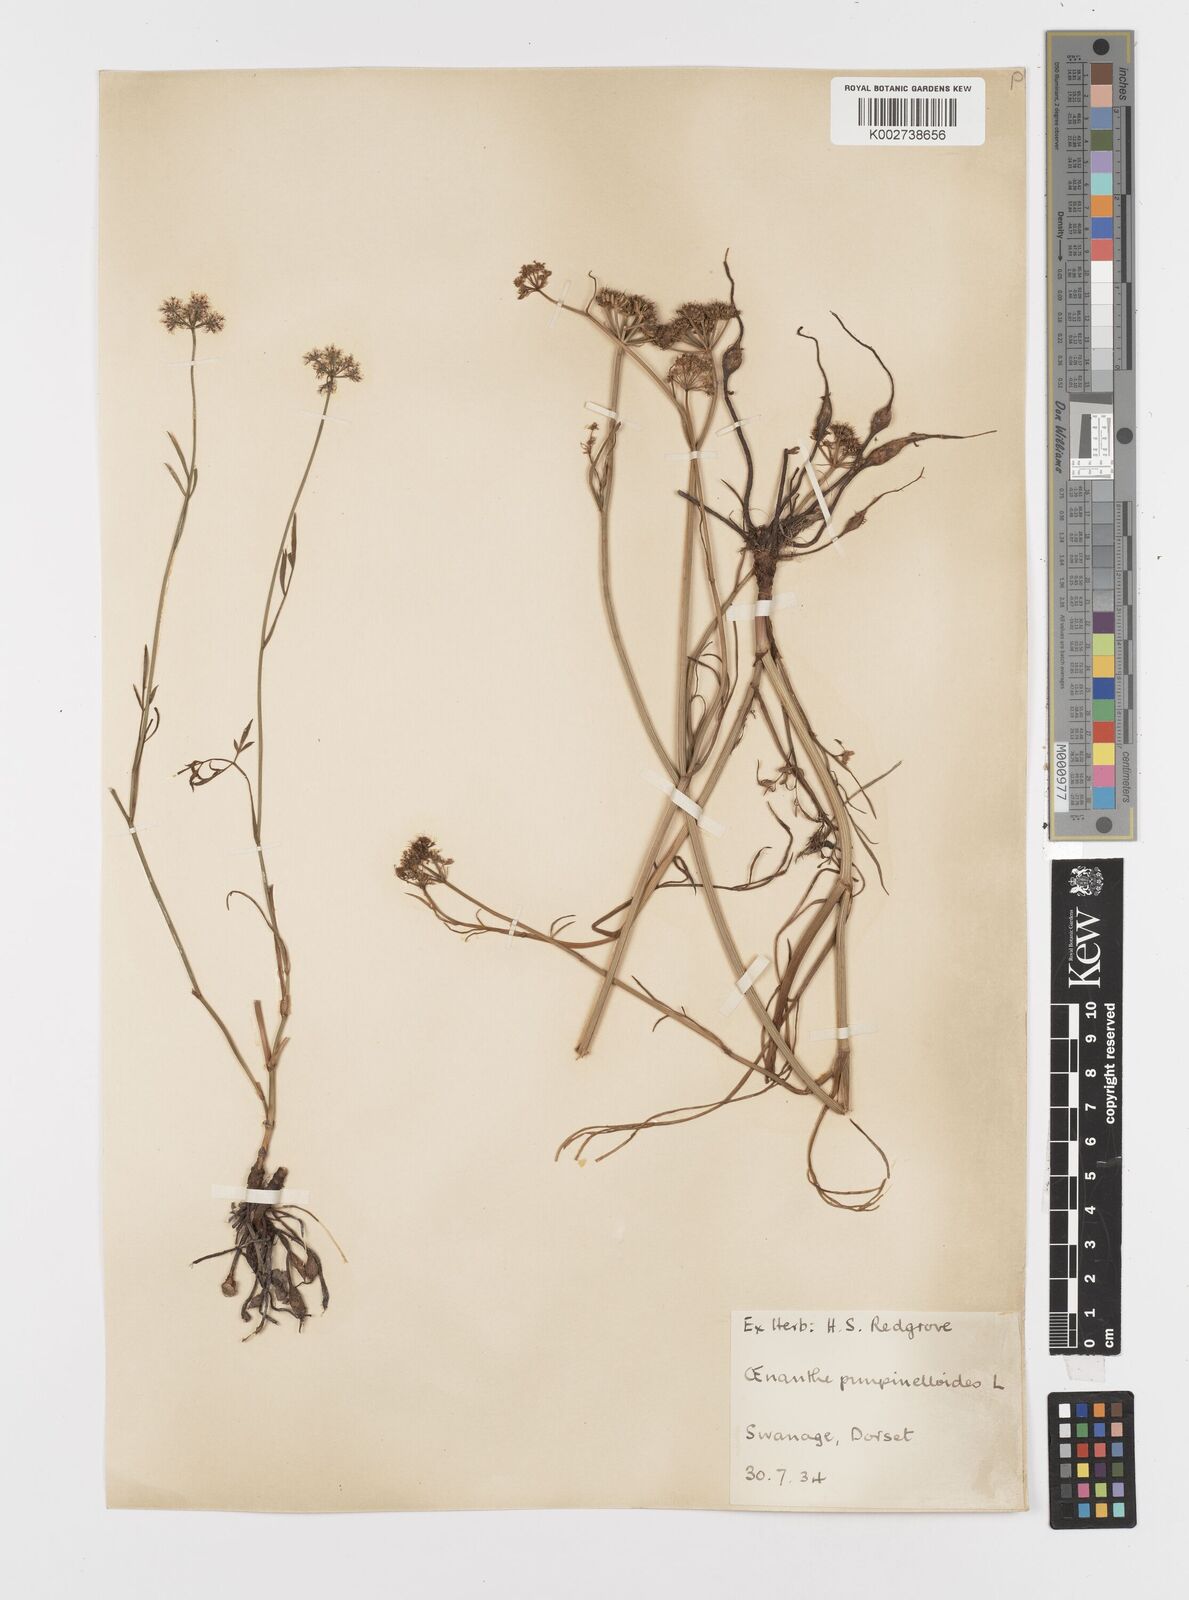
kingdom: Plantae
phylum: Tracheophyta
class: Magnoliopsida
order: Apiales
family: Apiaceae
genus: Oenanthe
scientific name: Oenanthe pimpinelloides
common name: Corky-fruited water-dropwort
